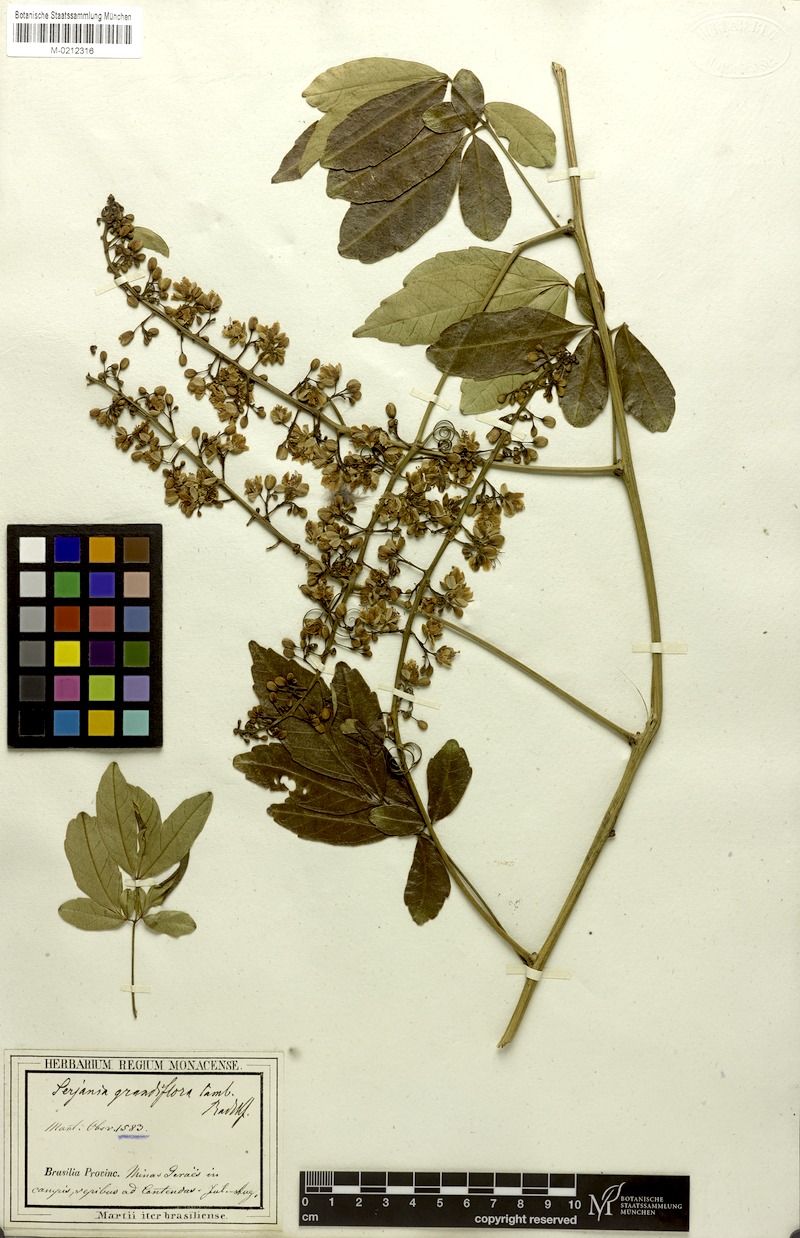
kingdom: Plantae
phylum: Tracheophyta
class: Magnoliopsida
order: Sapindales
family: Sapindaceae
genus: Serjania
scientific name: Serjania caracasana
